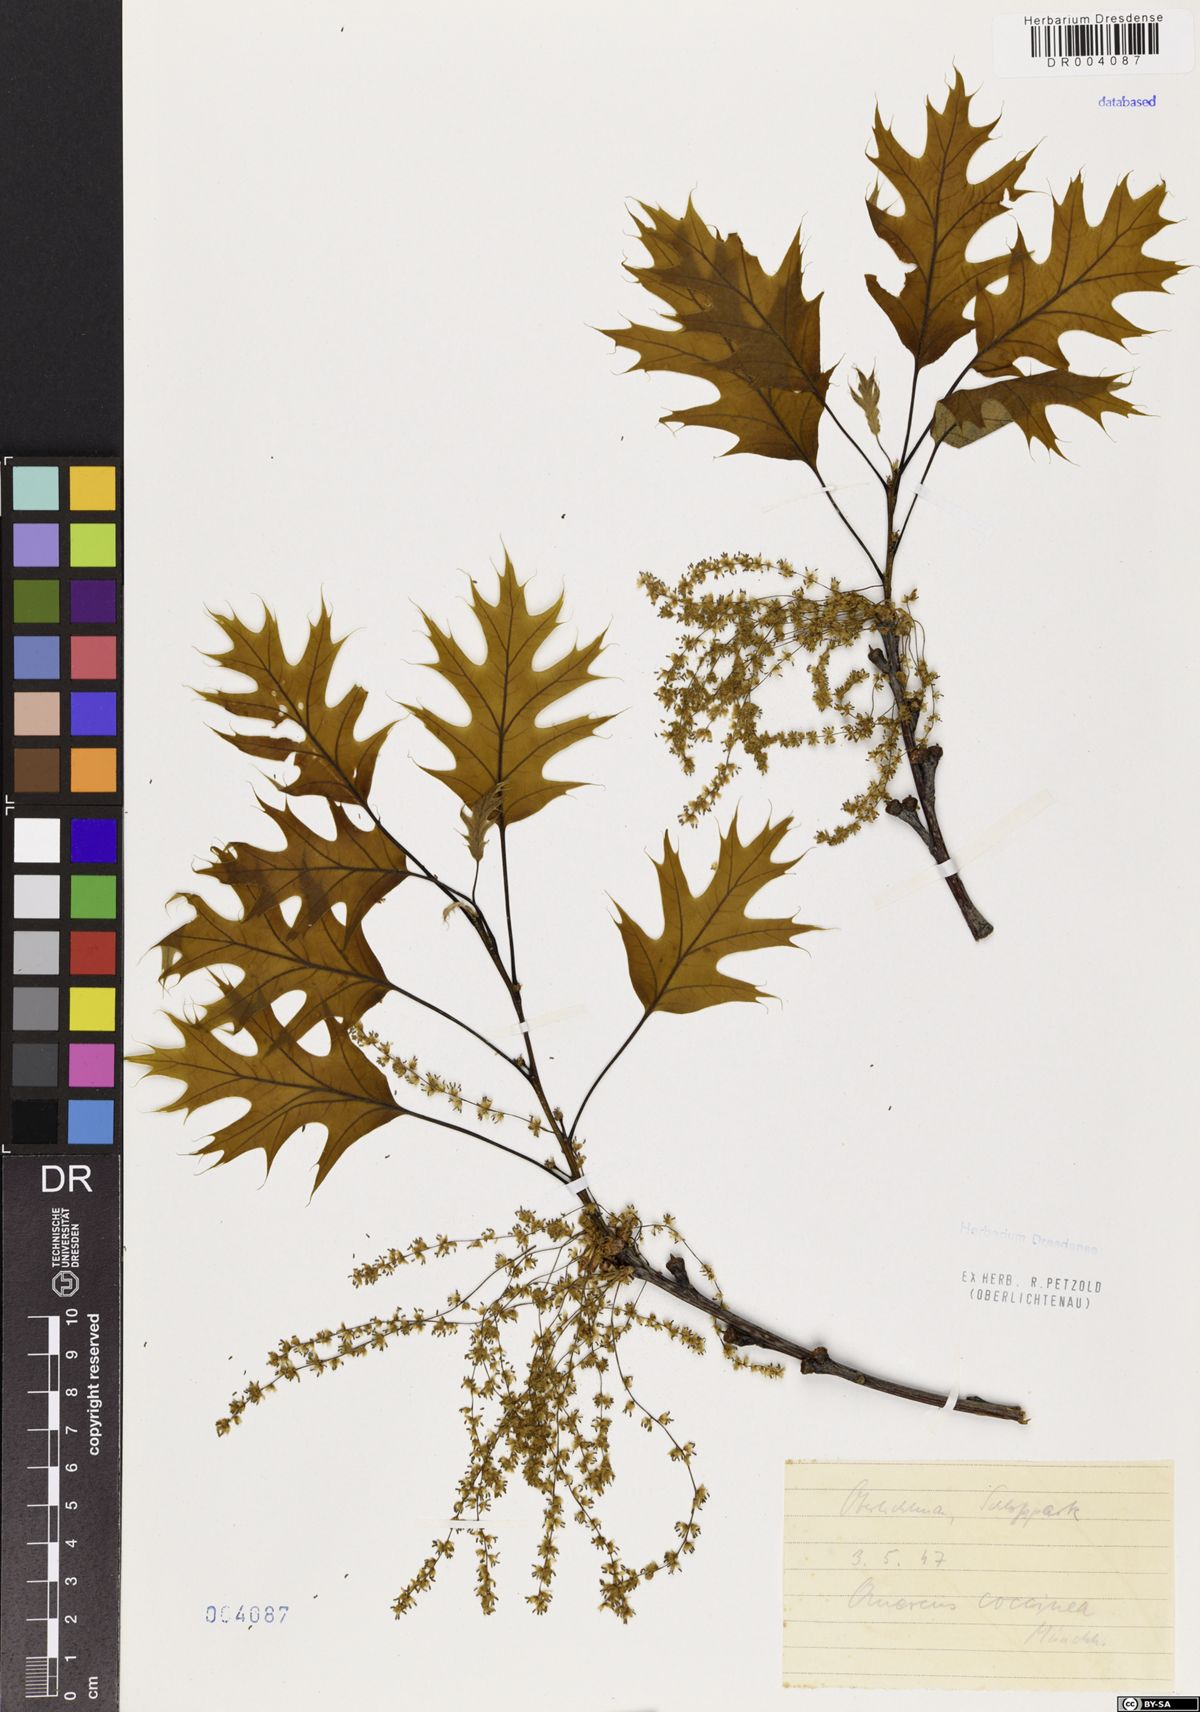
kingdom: Plantae
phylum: Tracheophyta
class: Magnoliopsida
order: Fagales
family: Fagaceae
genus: Quercus
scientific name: Quercus coccinea
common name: Scarlet oak
